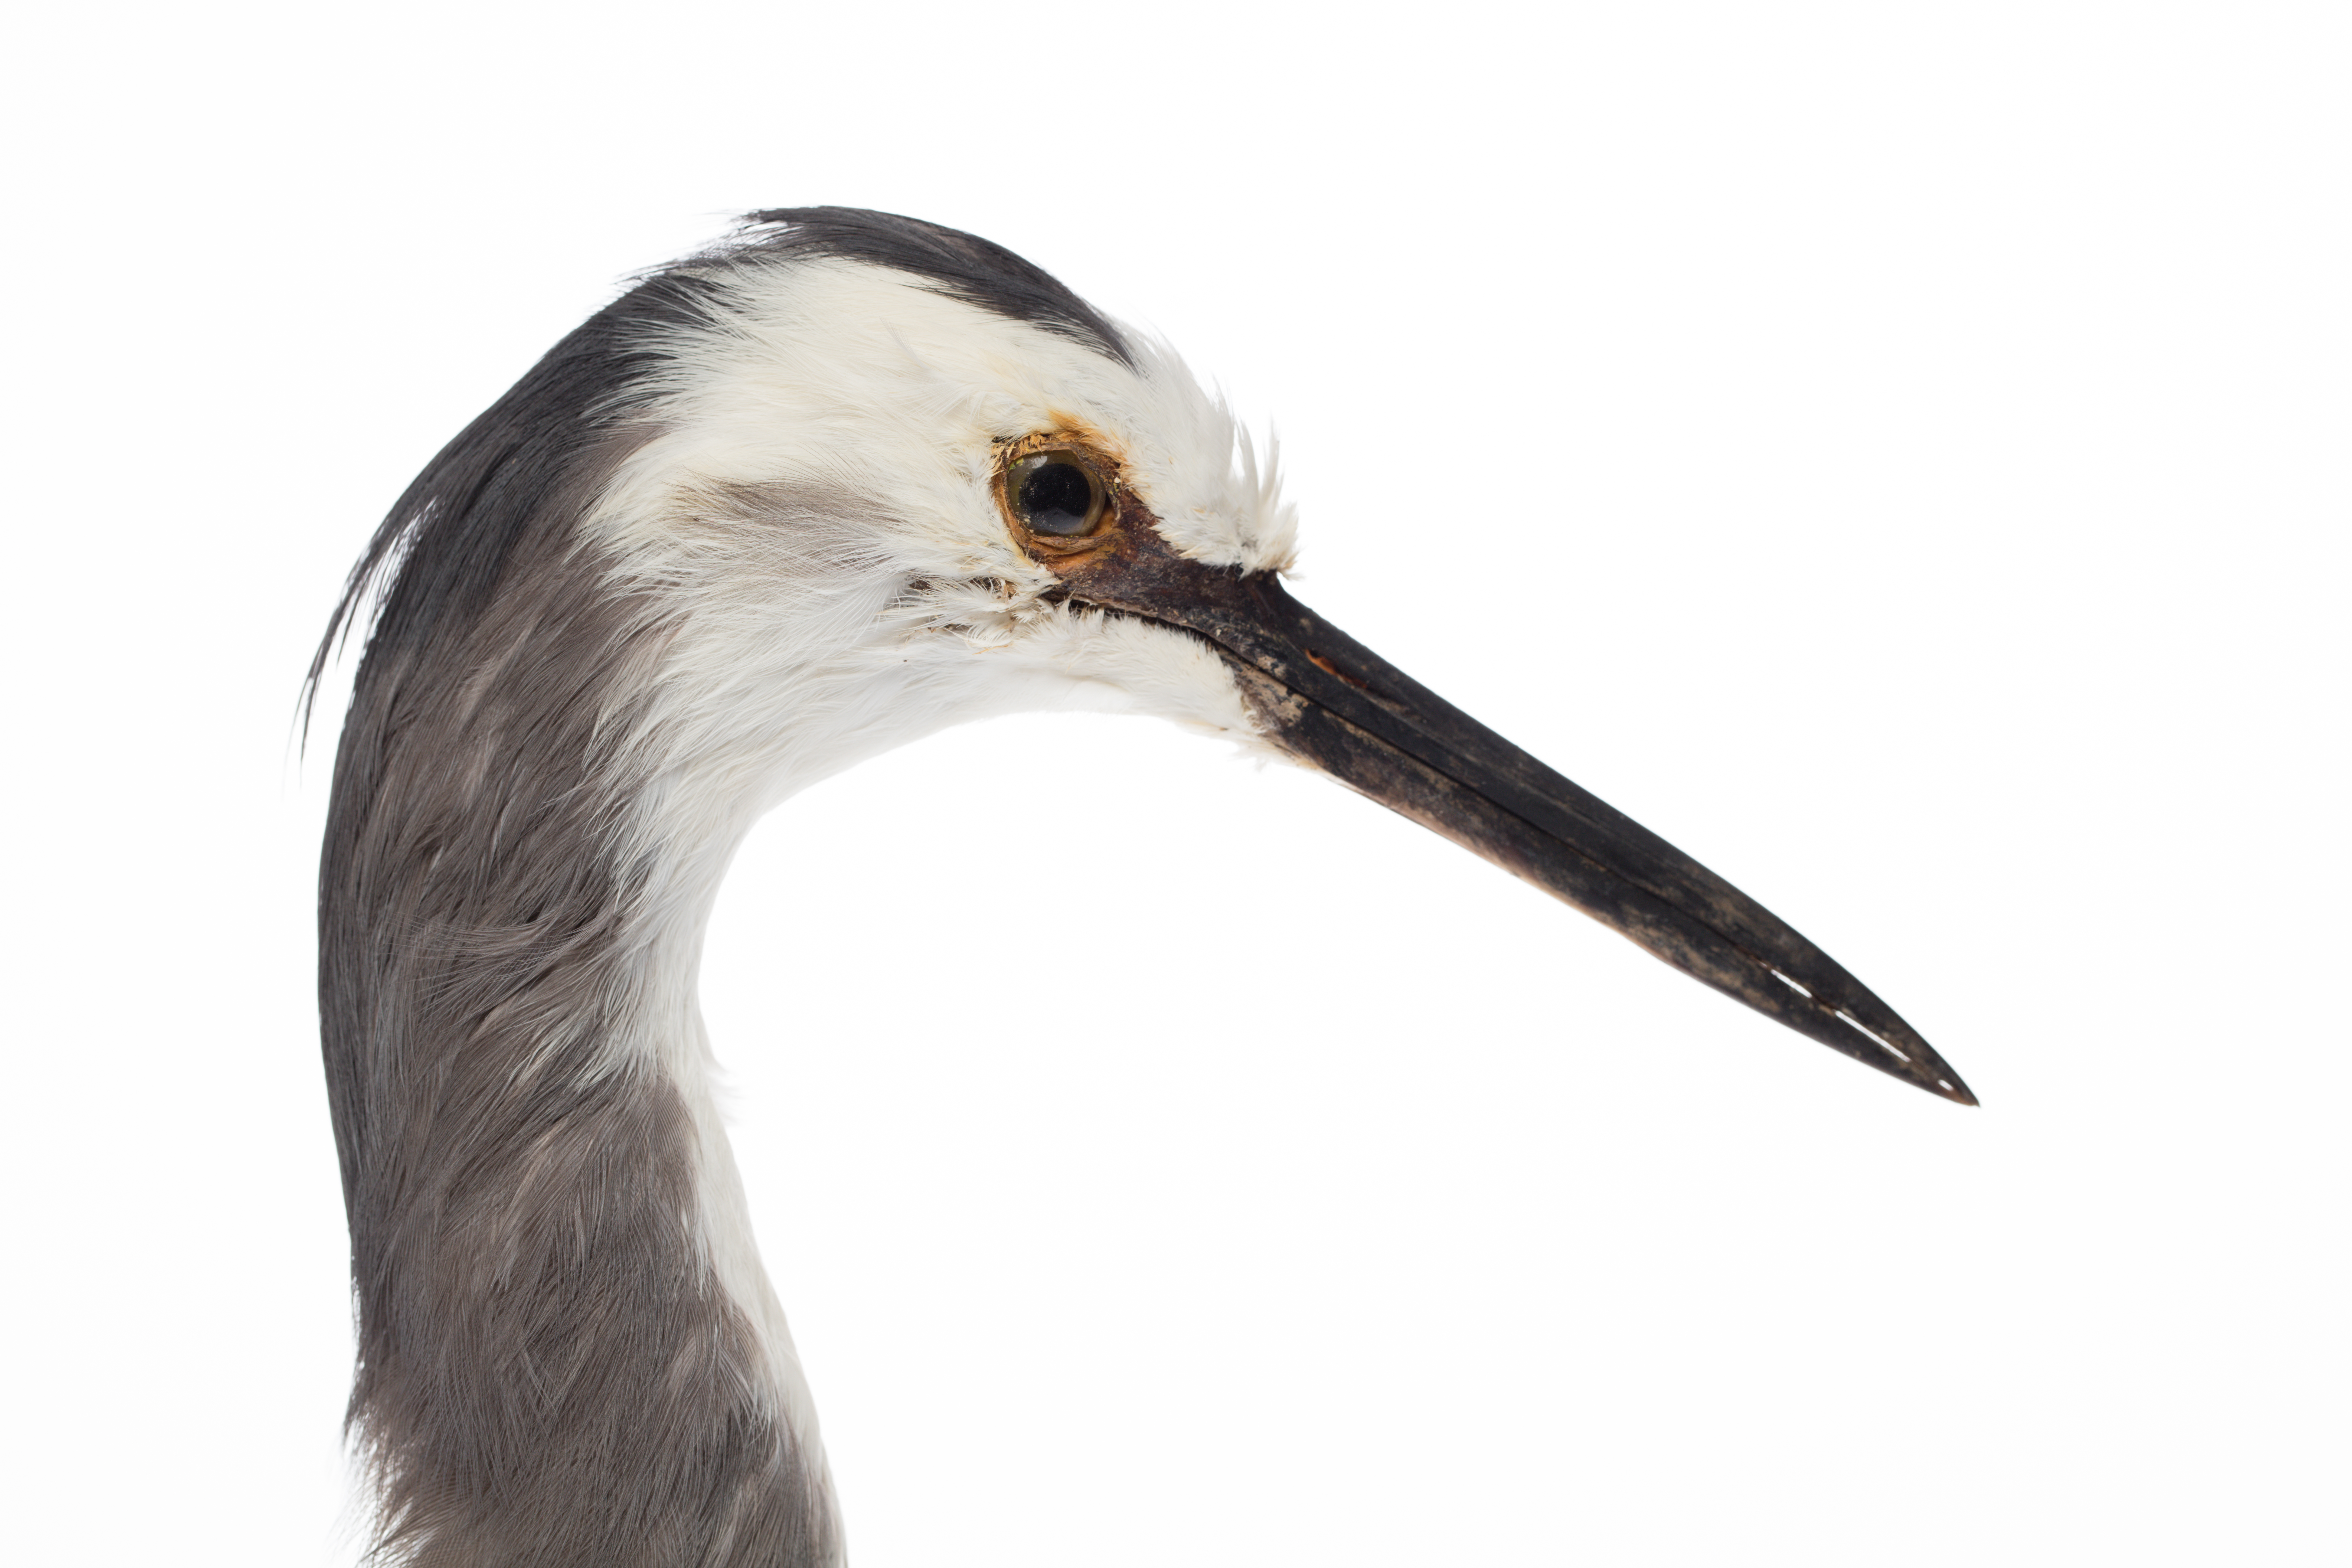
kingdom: Animalia
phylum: Chordata
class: Aves
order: Pelecaniformes
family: Ardeidae
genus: Egretta
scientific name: Egretta novaehollandiae
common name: White-faced heron
